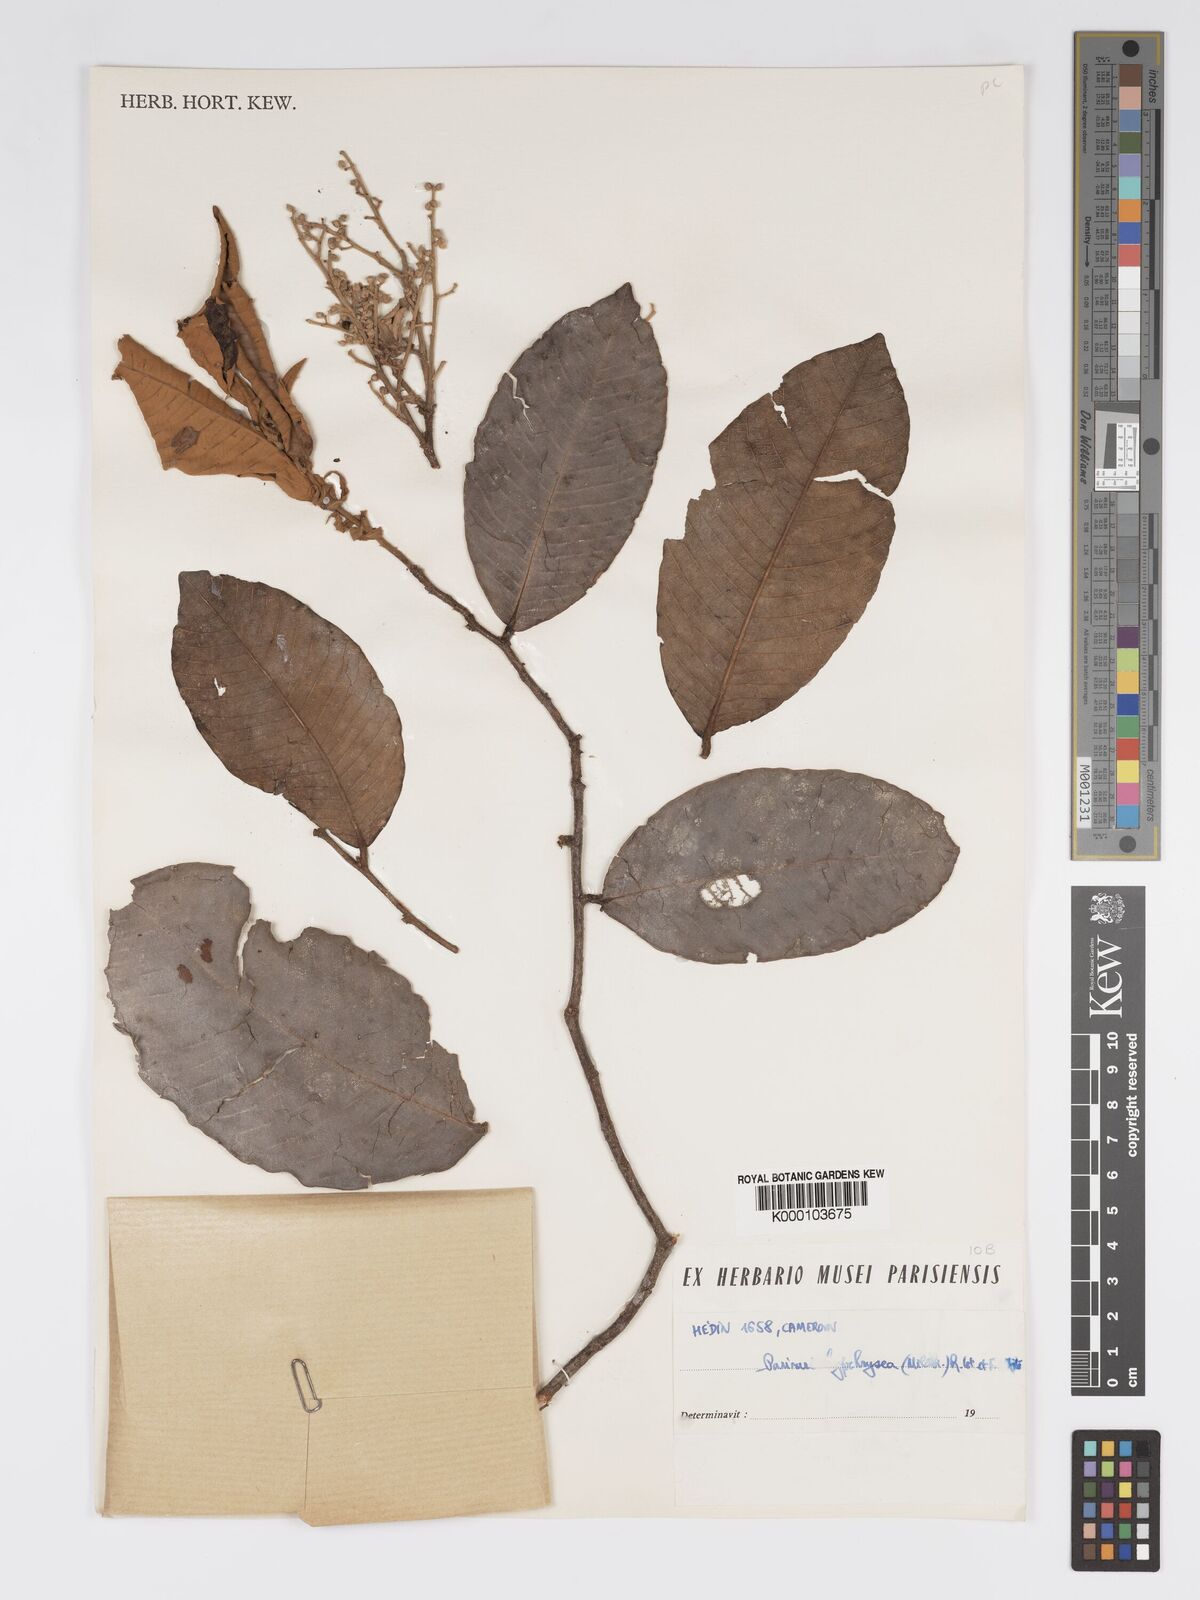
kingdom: Plantae
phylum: Tracheophyta
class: Magnoliopsida
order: Malpighiales
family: Chrysobalanaceae
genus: Parinari
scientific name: Parinari hypochrysea
